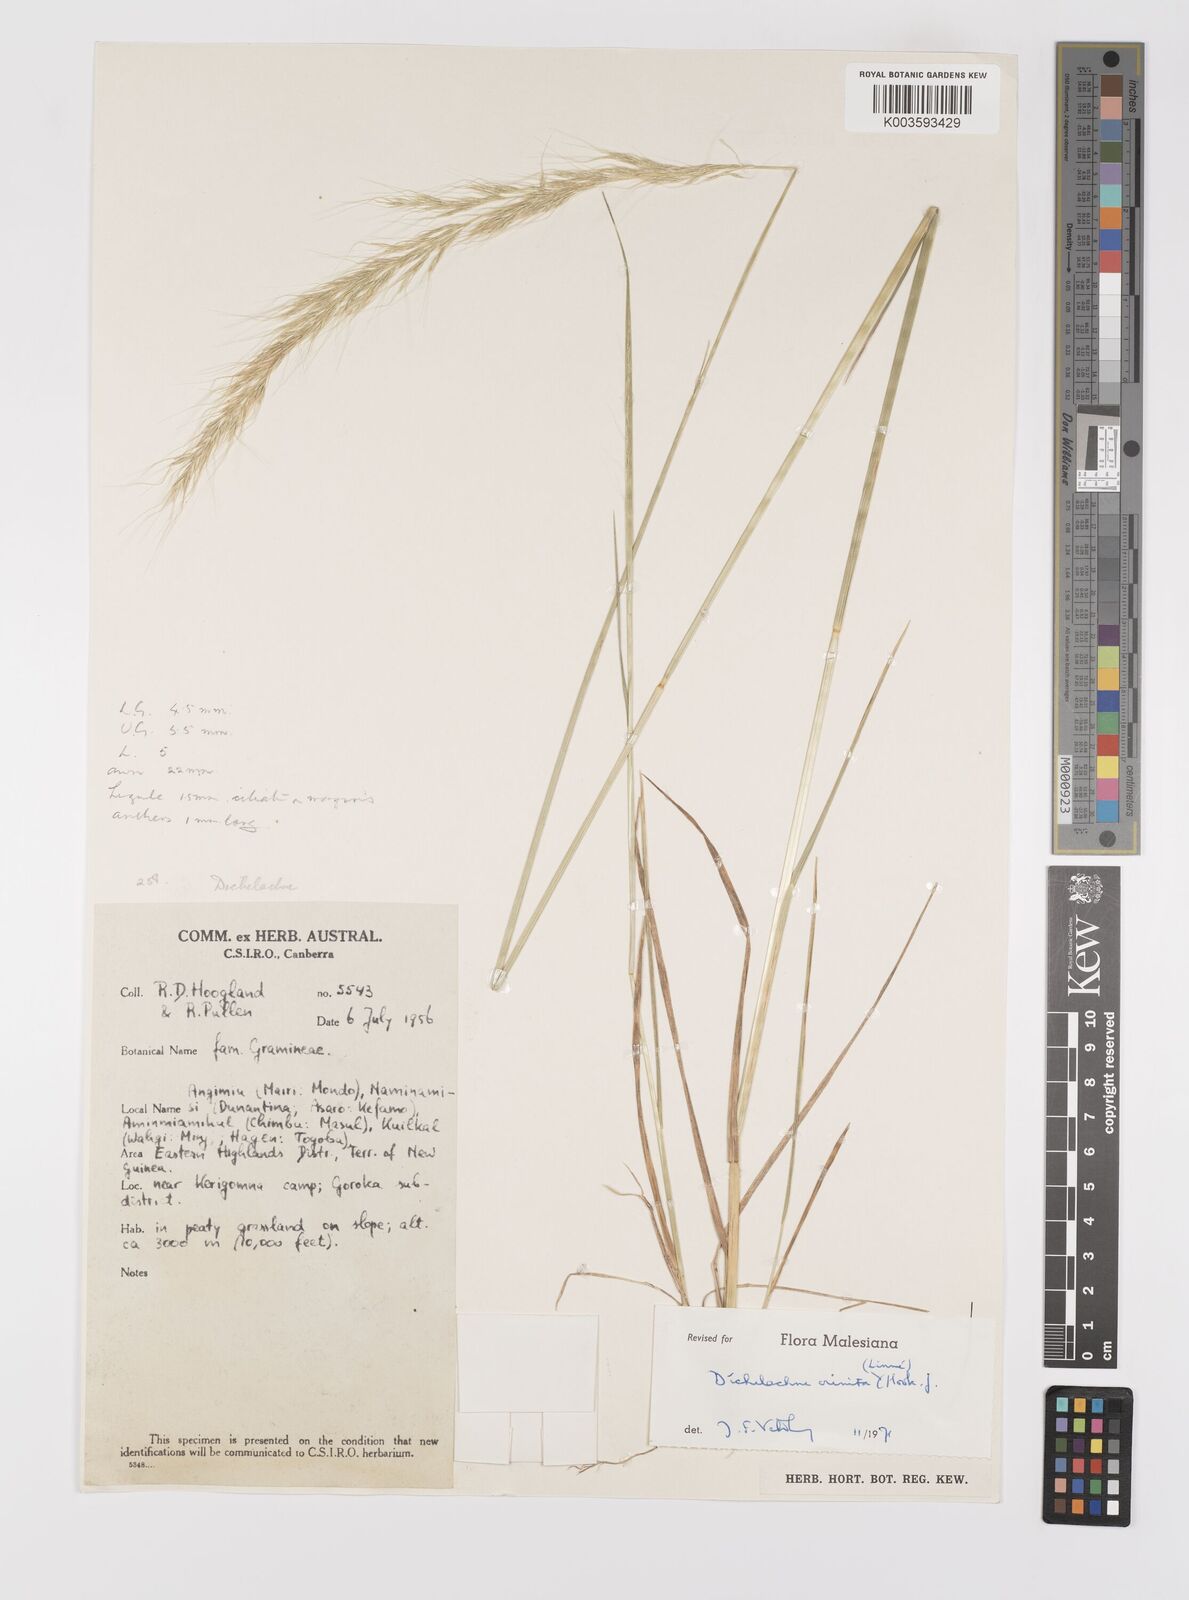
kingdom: Plantae
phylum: Tracheophyta
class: Liliopsida
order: Poales
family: Poaceae
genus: Dichelachne
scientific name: Dichelachne crinita
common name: Clovenfoot plumegrass
